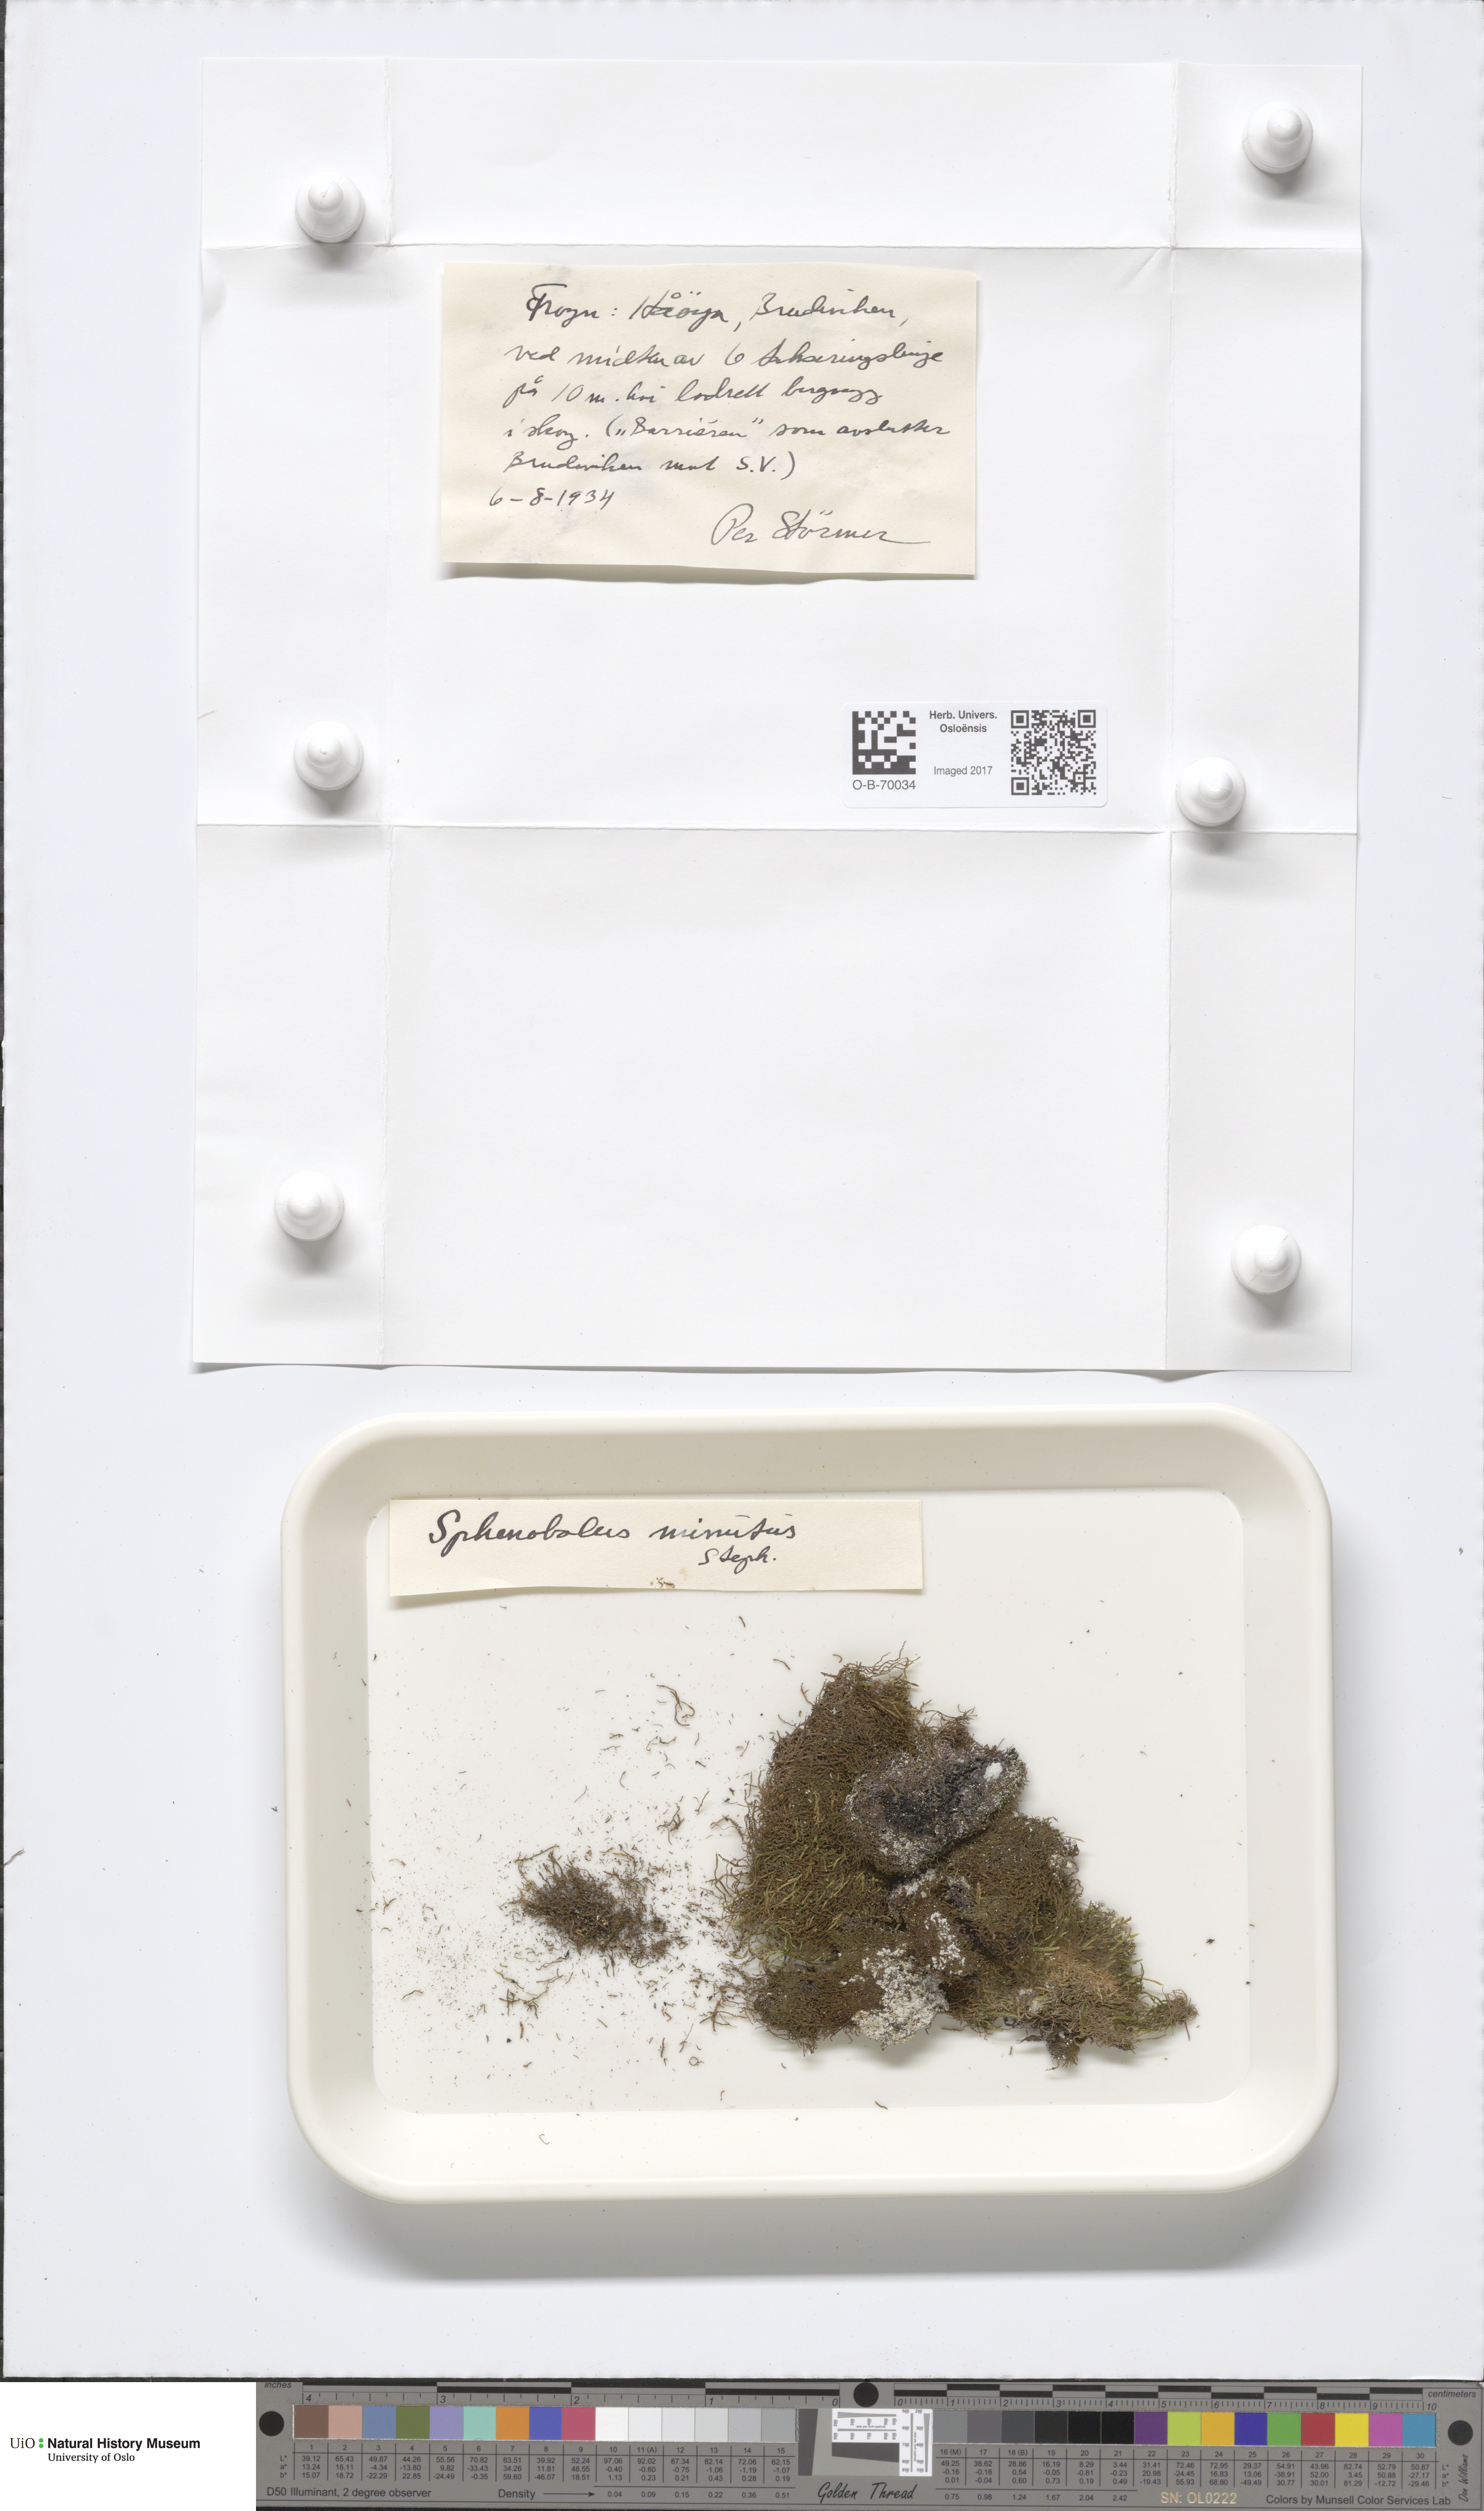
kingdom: Plantae
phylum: Marchantiophyta
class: Jungermanniopsida
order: Jungermanniales
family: Anastrophyllaceae
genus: Sphenolobus
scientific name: Sphenolobus minutus
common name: Comb notchwort
